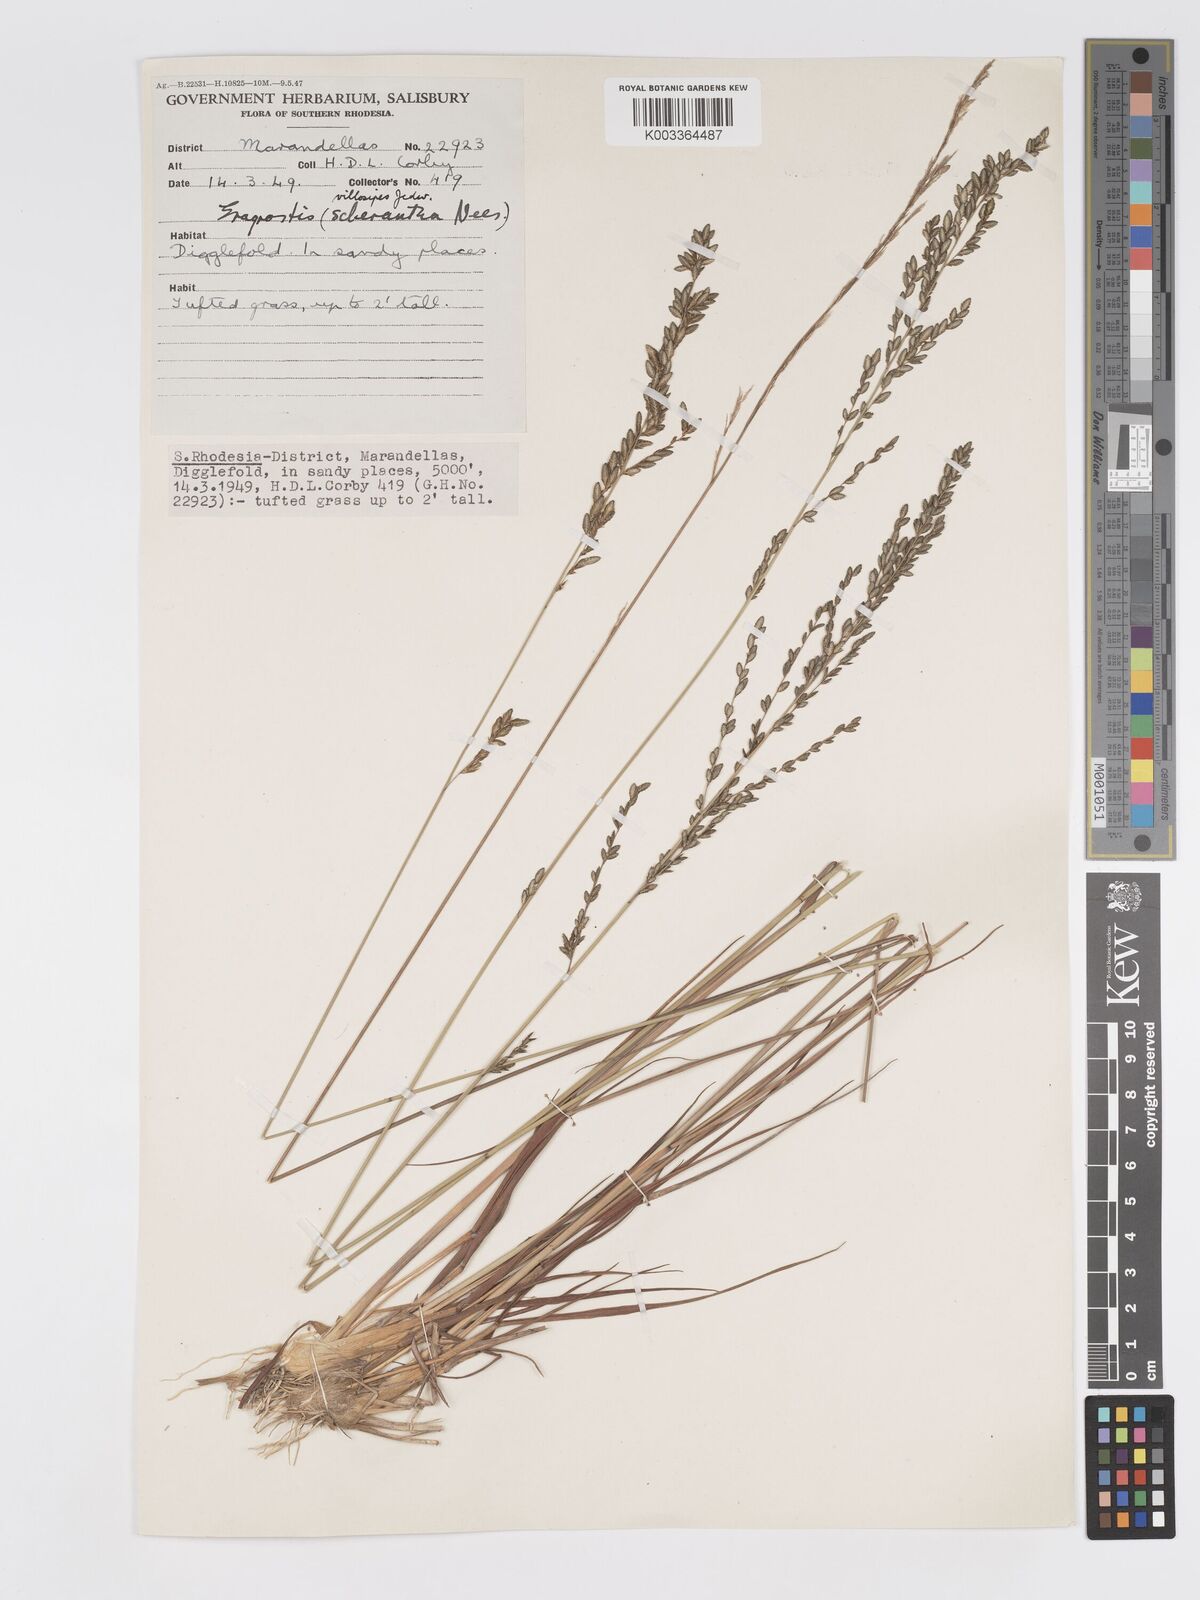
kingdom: Plantae
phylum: Tracheophyta
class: Liliopsida
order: Poales
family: Poaceae
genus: Eragrostis
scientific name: Eragrostis sclerantha
